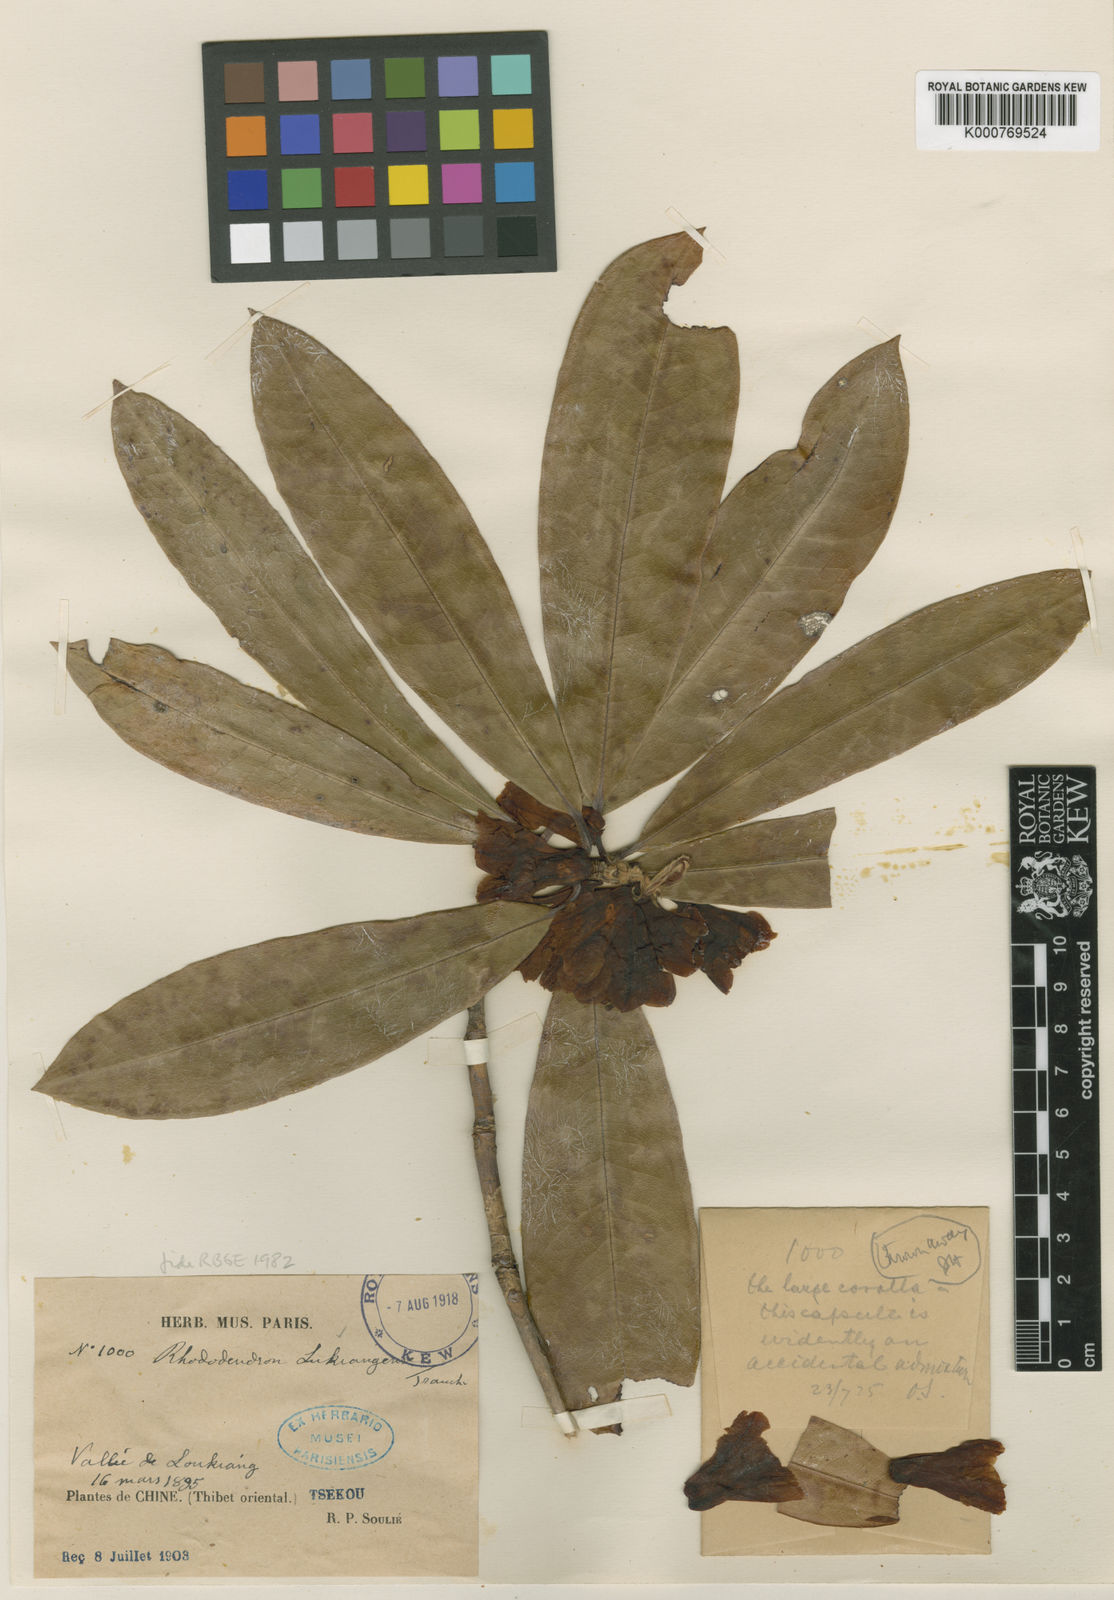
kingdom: Plantae
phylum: Tracheophyta
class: Magnoliopsida
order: Ericales
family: Ericaceae
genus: Rhododendron
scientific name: Rhododendron lukiangense
